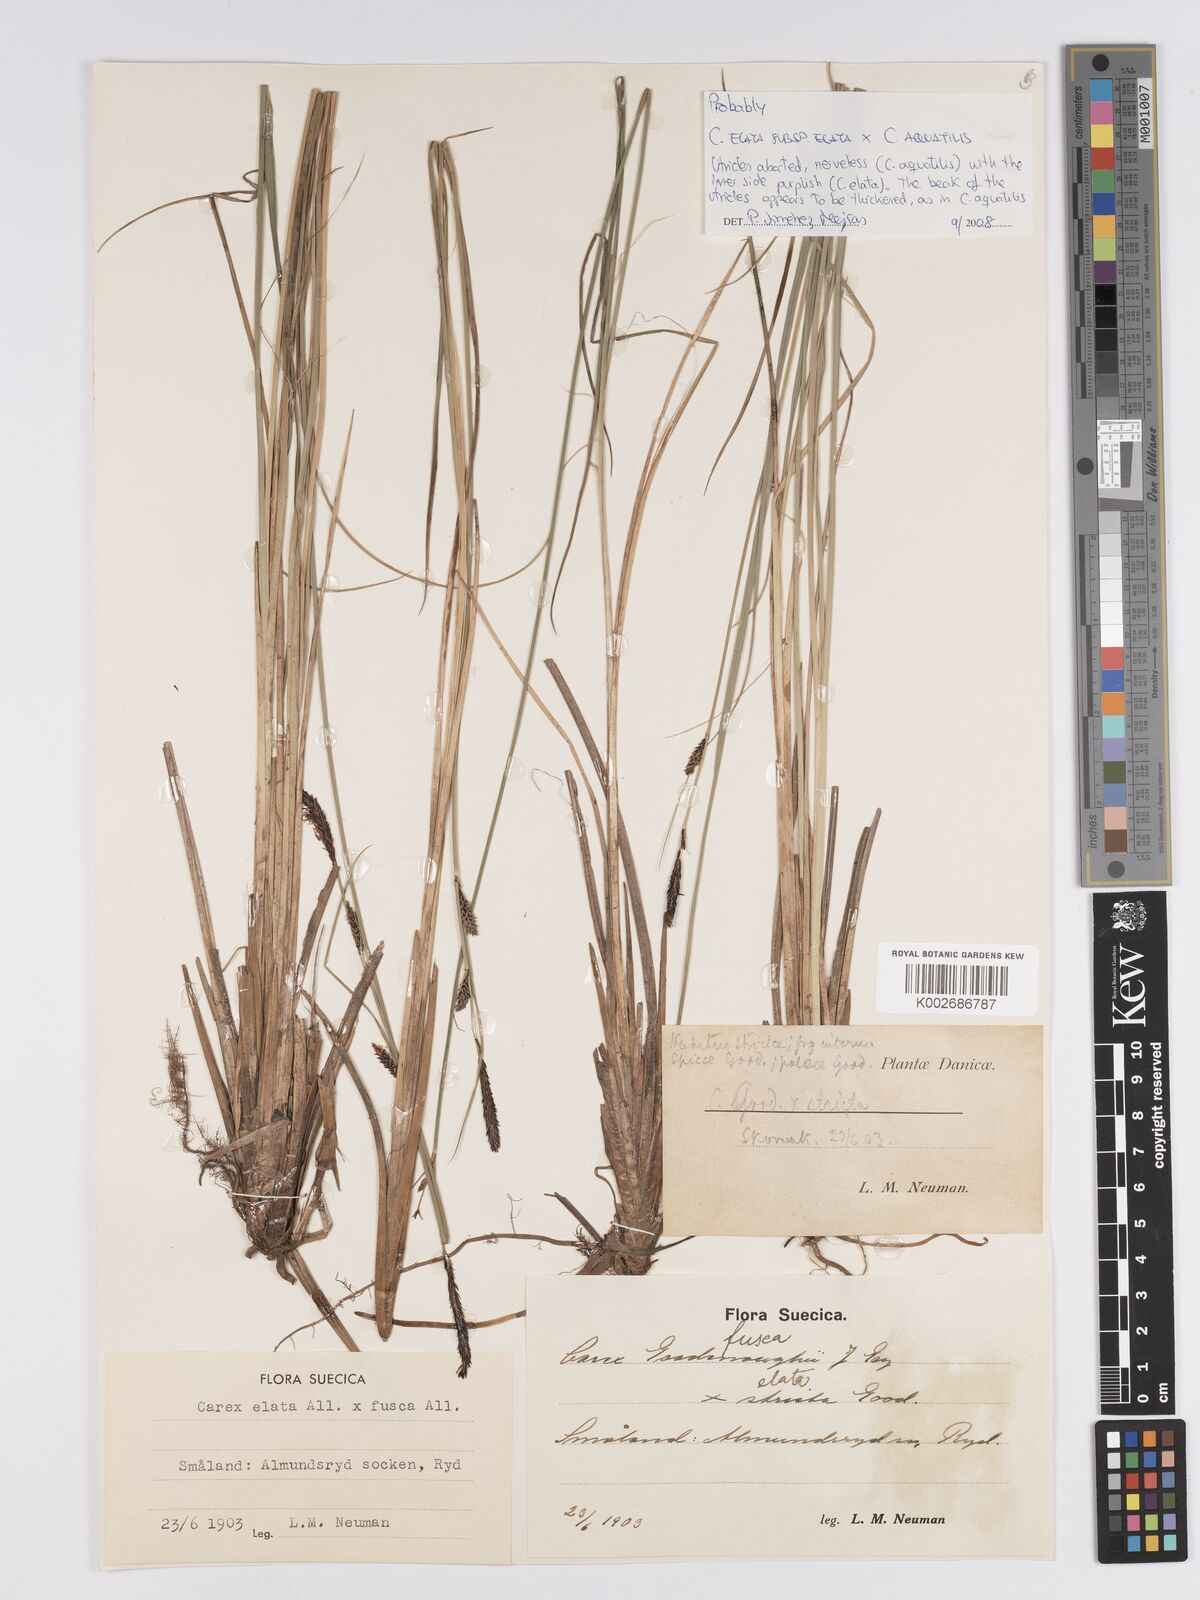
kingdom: Plantae
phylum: Tracheophyta
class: Liliopsida
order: Poales
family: Cyperaceae
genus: Carex
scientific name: Carex elata
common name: Tufted sedge
